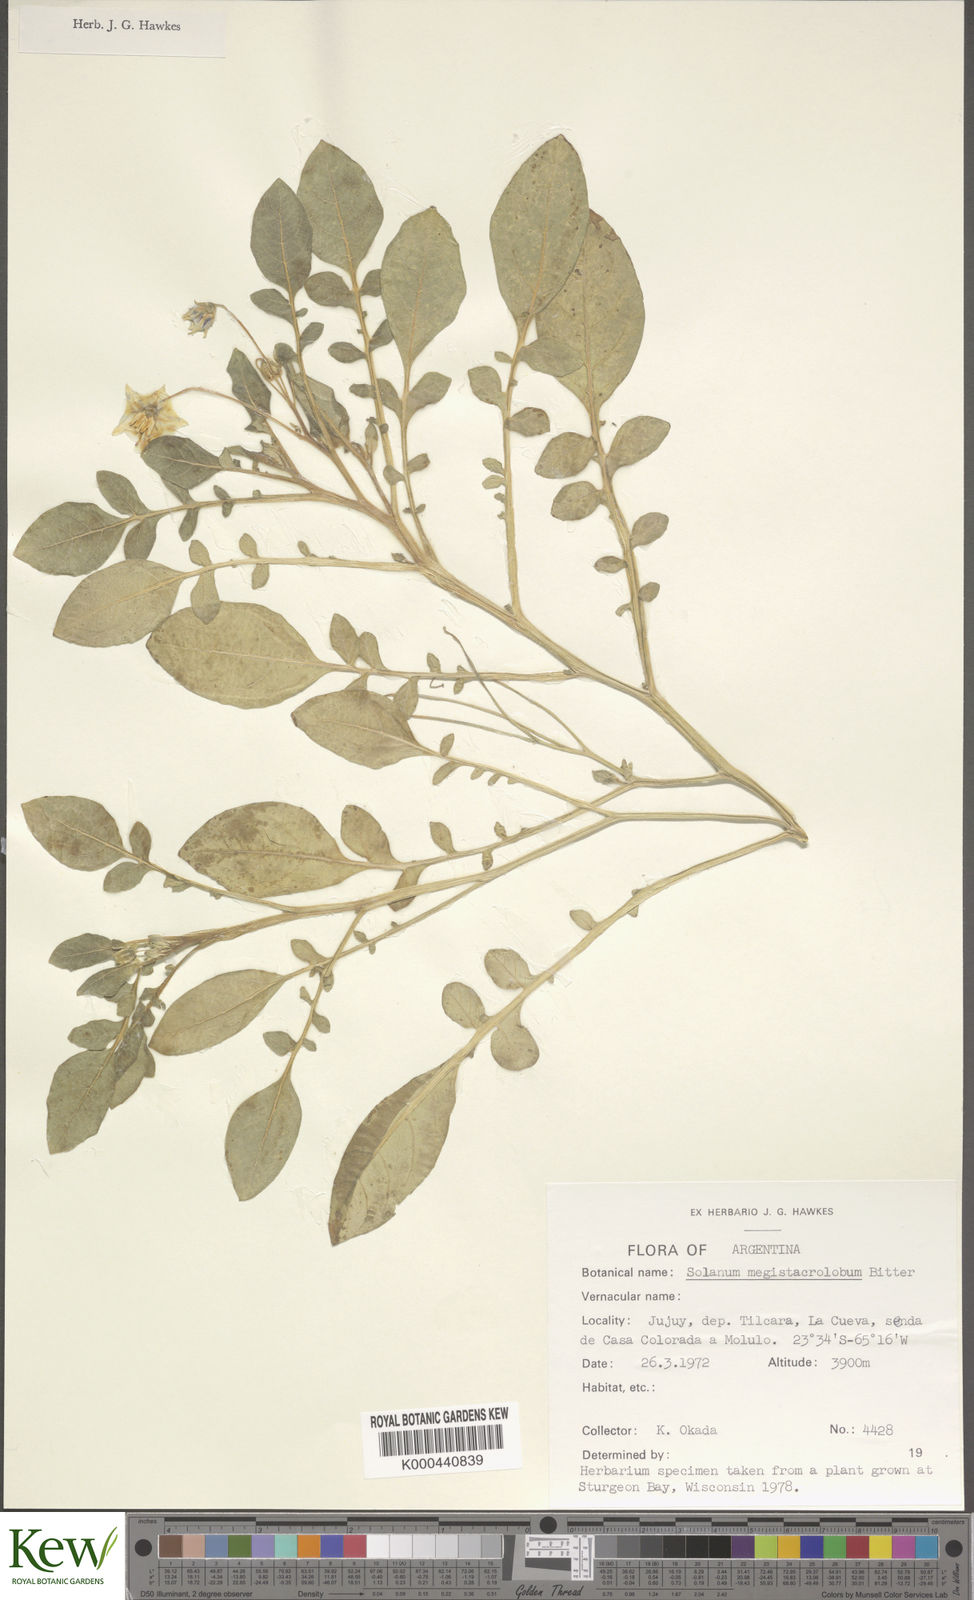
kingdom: Plantae
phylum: Tracheophyta
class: Magnoliopsida
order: Solanales
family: Solanaceae
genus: Solanum
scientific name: Solanum boliviense
